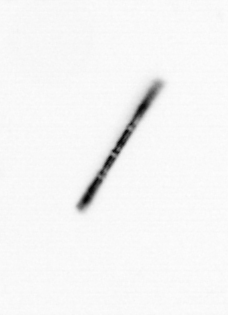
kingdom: Chromista
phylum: Ochrophyta
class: Bacillariophyceae
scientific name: Bacillariophyceae
